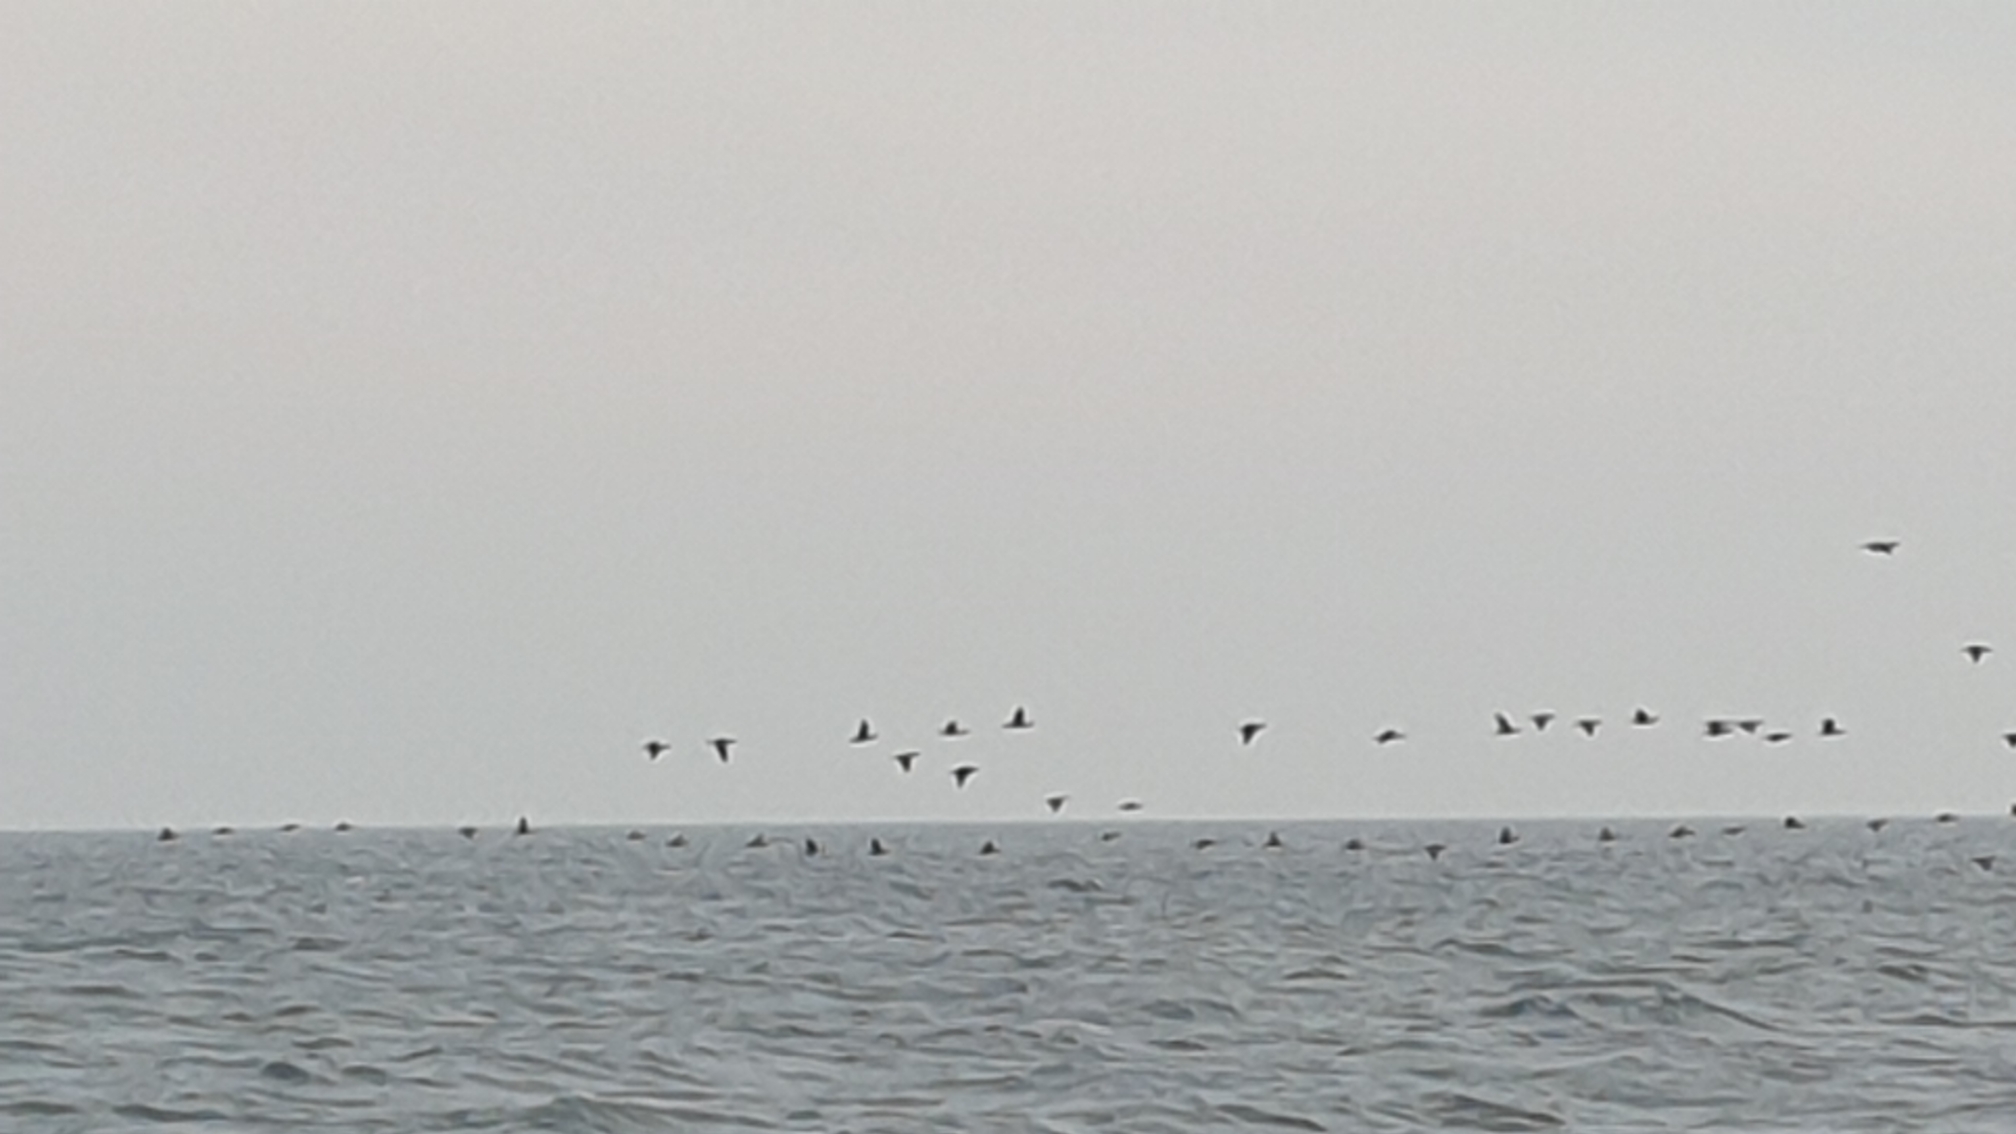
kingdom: Animalia
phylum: Chordata
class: Aves
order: Suliformes
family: Phalacrocoracidae
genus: Phalacrocorax
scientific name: Phalacrocorax carbo
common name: Skarv
